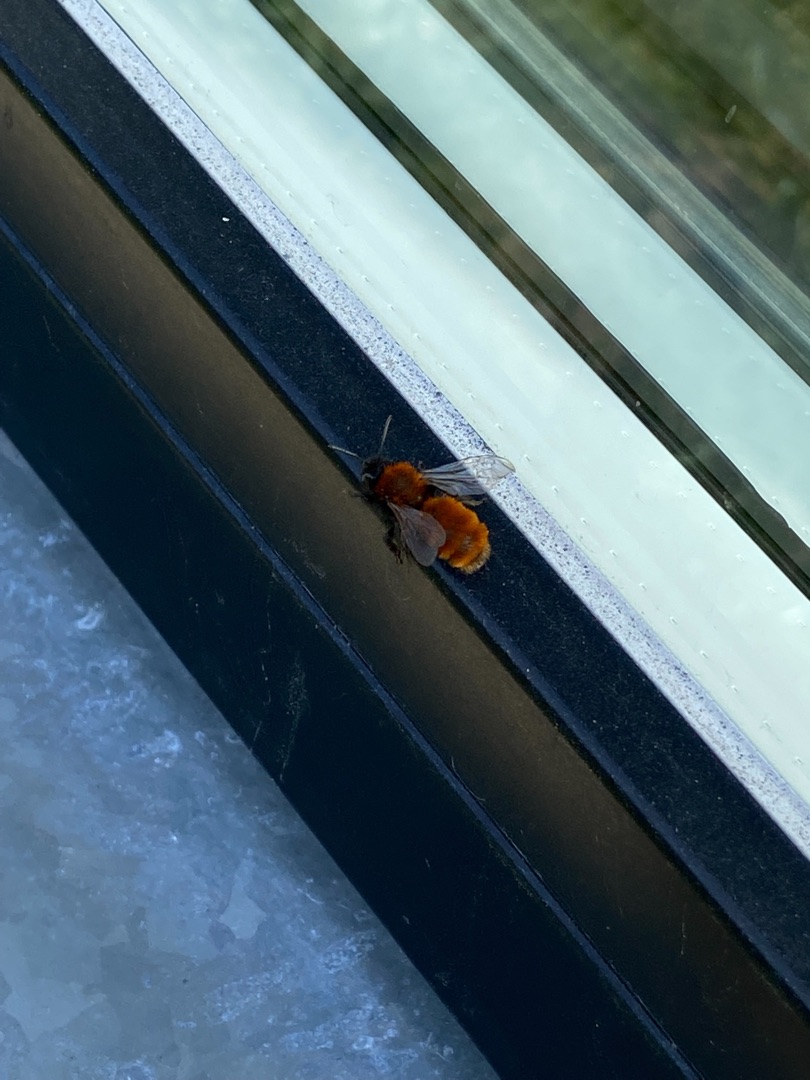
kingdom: Animalia
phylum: Arthropoda
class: Insecta
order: Hymenoptera
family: Andrenidae
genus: Andrena
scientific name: Andrena fulva
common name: Rødpelset jordbi
